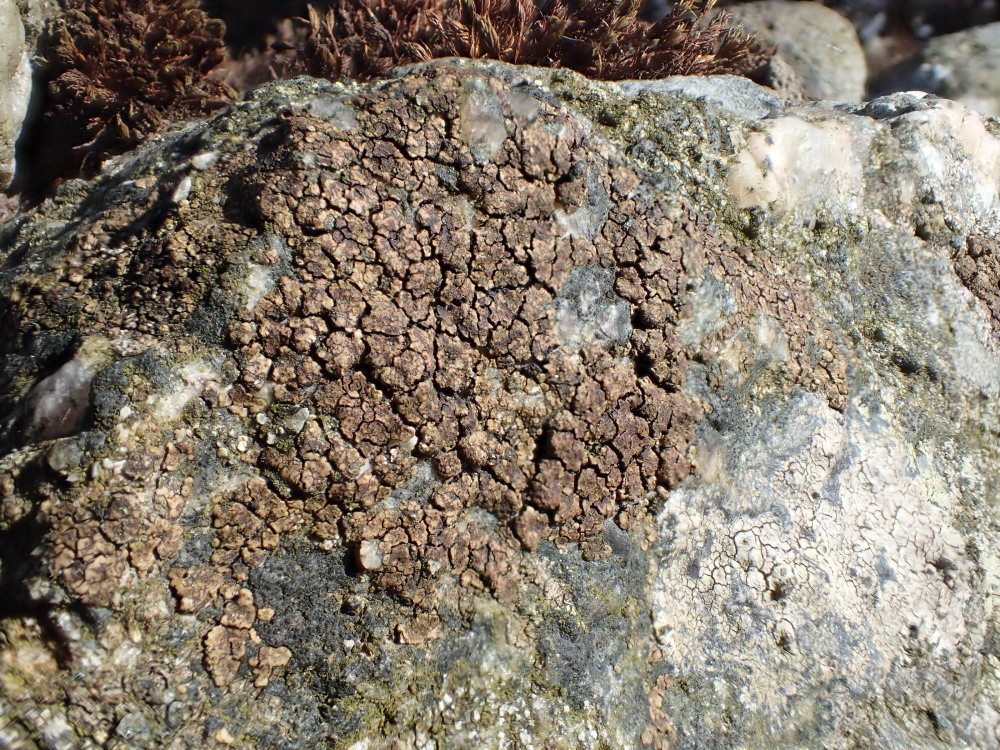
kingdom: Fungi
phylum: Ascomycota
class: Lecanoromycetes
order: Acarosporales
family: Acarosporaceae
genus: Acarospora
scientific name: Acarospora fuscata
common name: brun småsporelav
